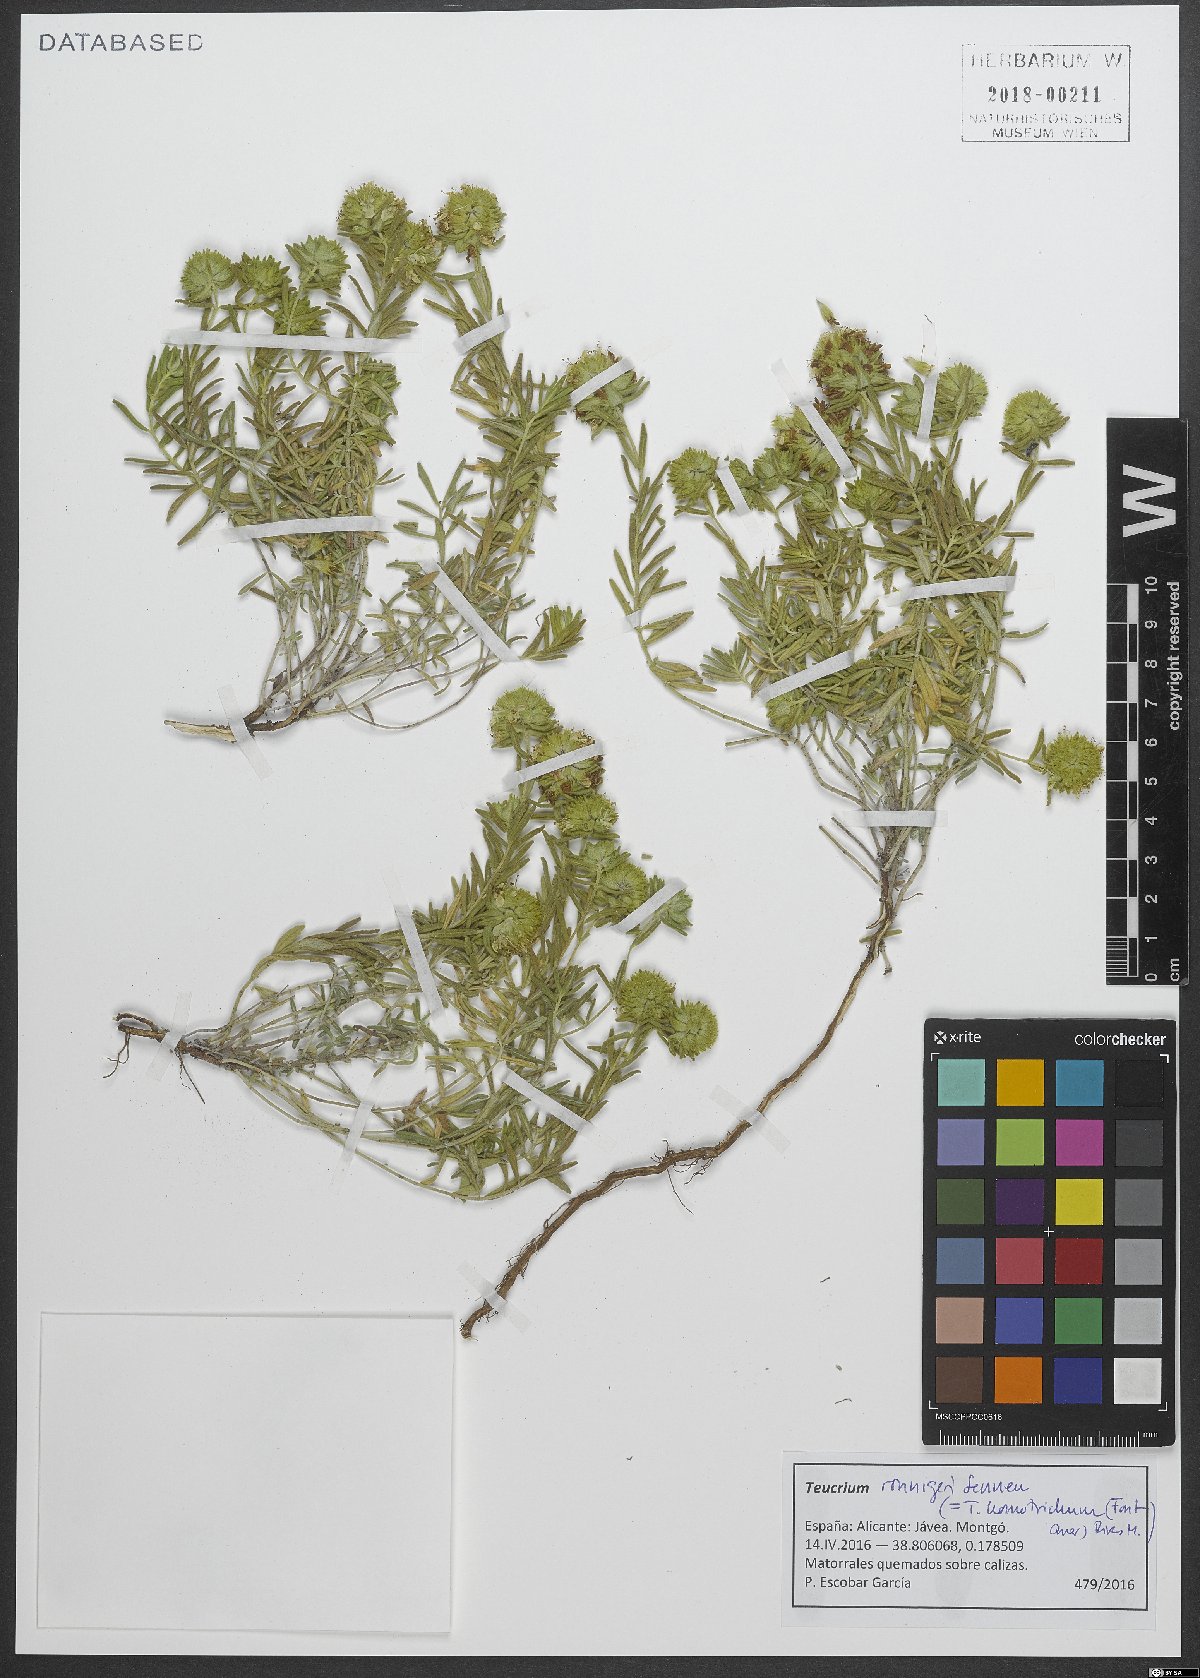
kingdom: Plantae
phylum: Tracheophyta
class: Magnoliopsida
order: Lamiales
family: Lamiaceae
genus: Teucrium
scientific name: Teucrium ronnigeri
